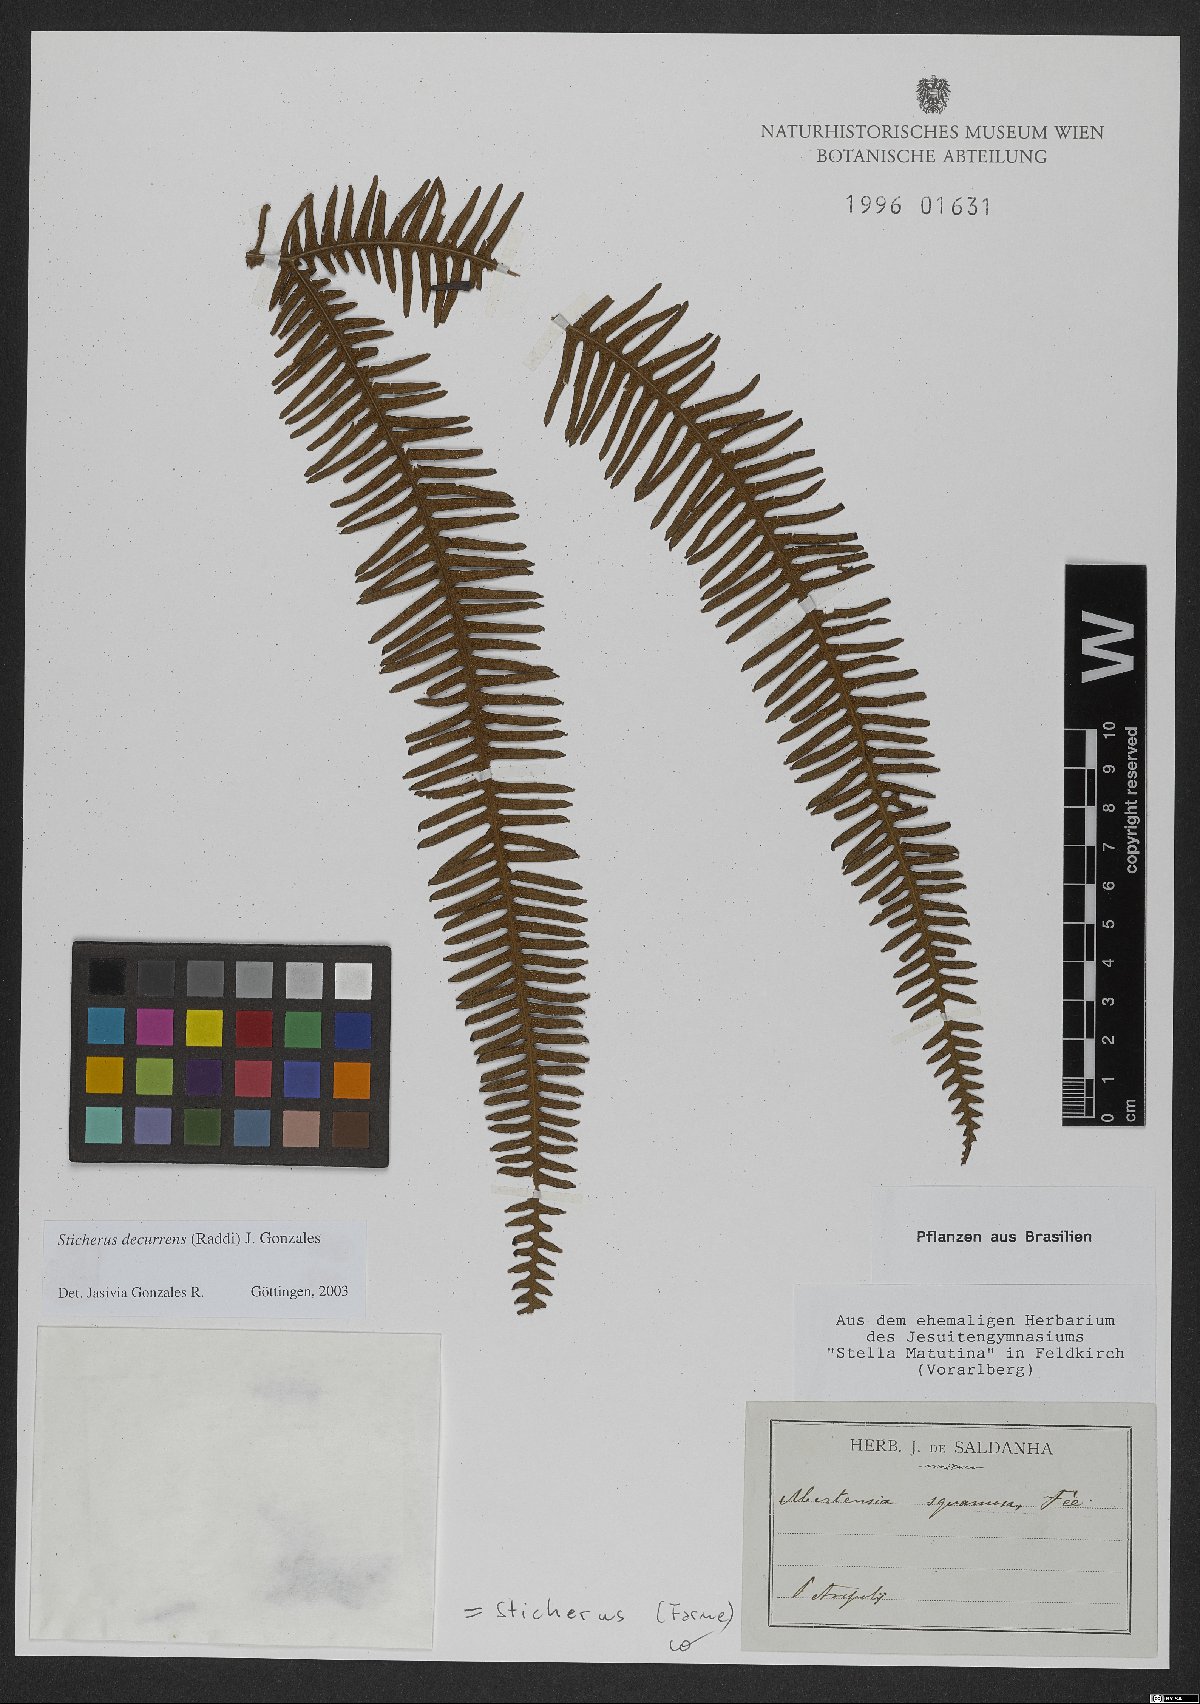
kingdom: Plantae
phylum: Tracheophyta
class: Polypodiopsida
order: Gleicheniales
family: Gleicheniaceae
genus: Sticherus
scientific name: Sticherus decurrens
